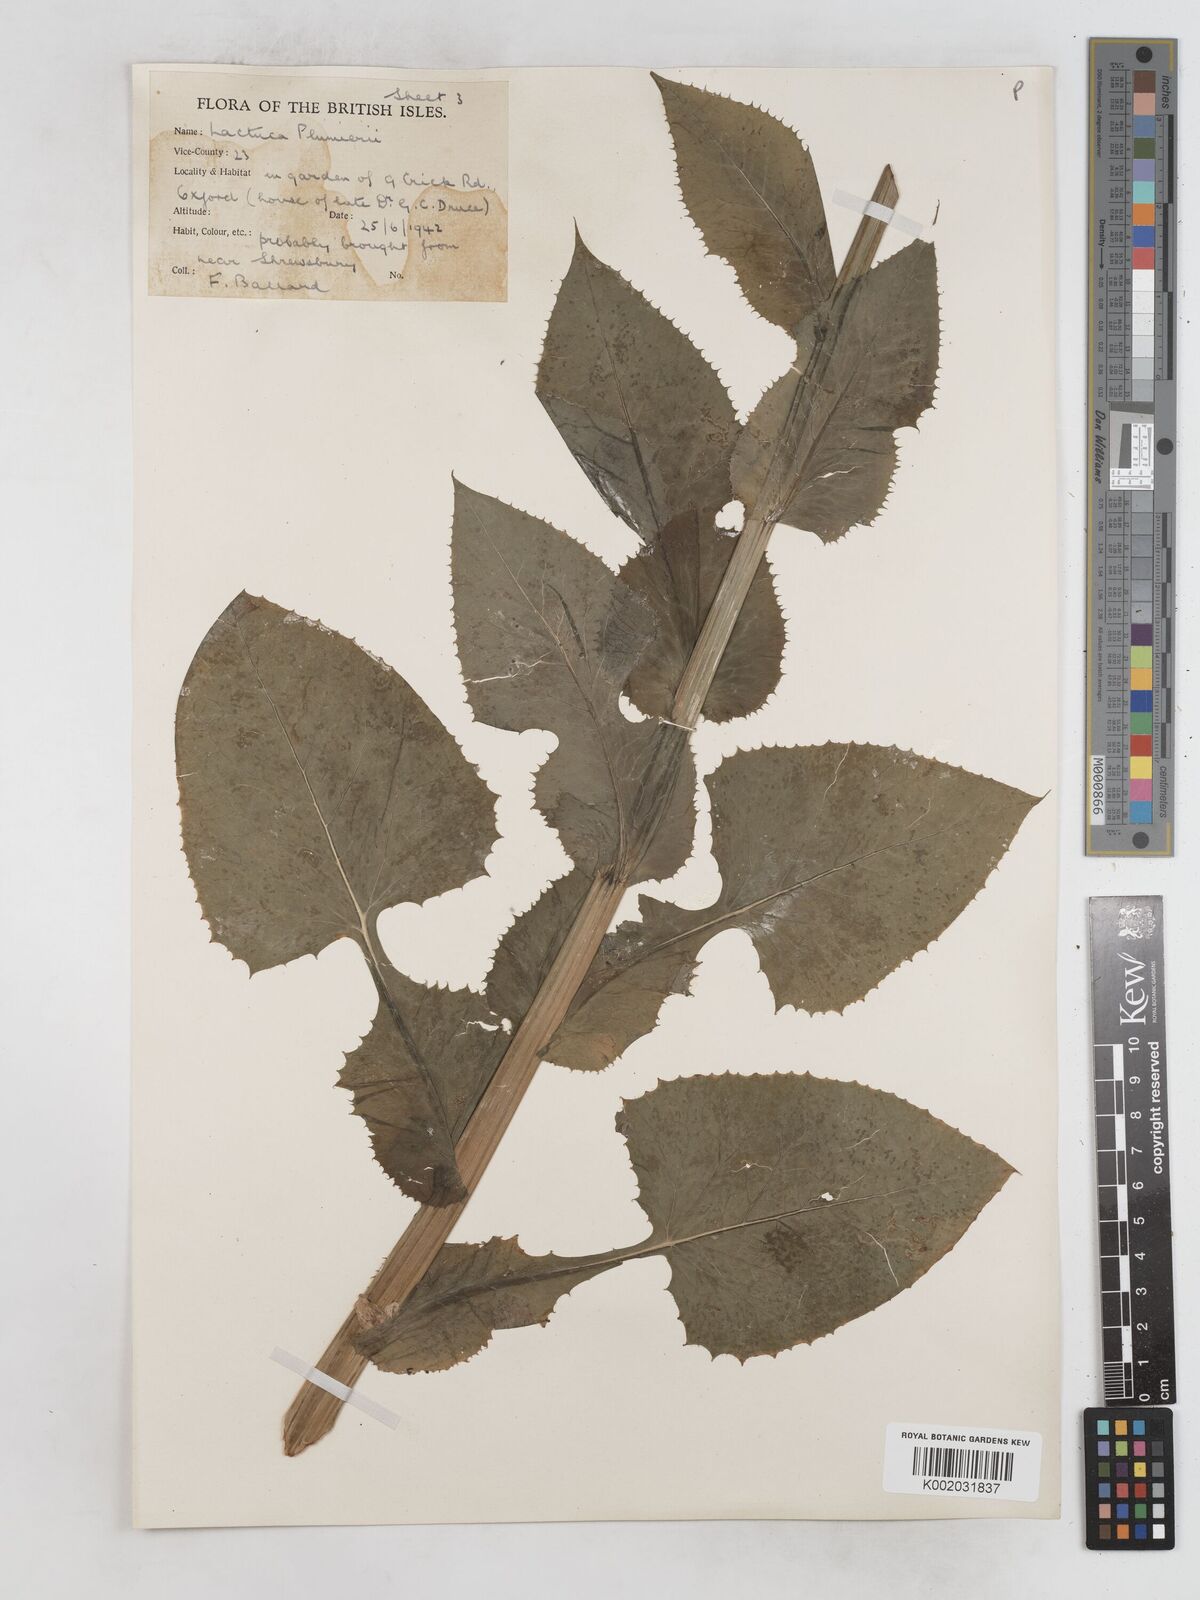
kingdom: Plantae
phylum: Tracheophyta
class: Magnoliopsida
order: Asterales
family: Asteraceae
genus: Lactuca
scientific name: Lactuca macrophylla
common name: Common blue-sow-thistle
